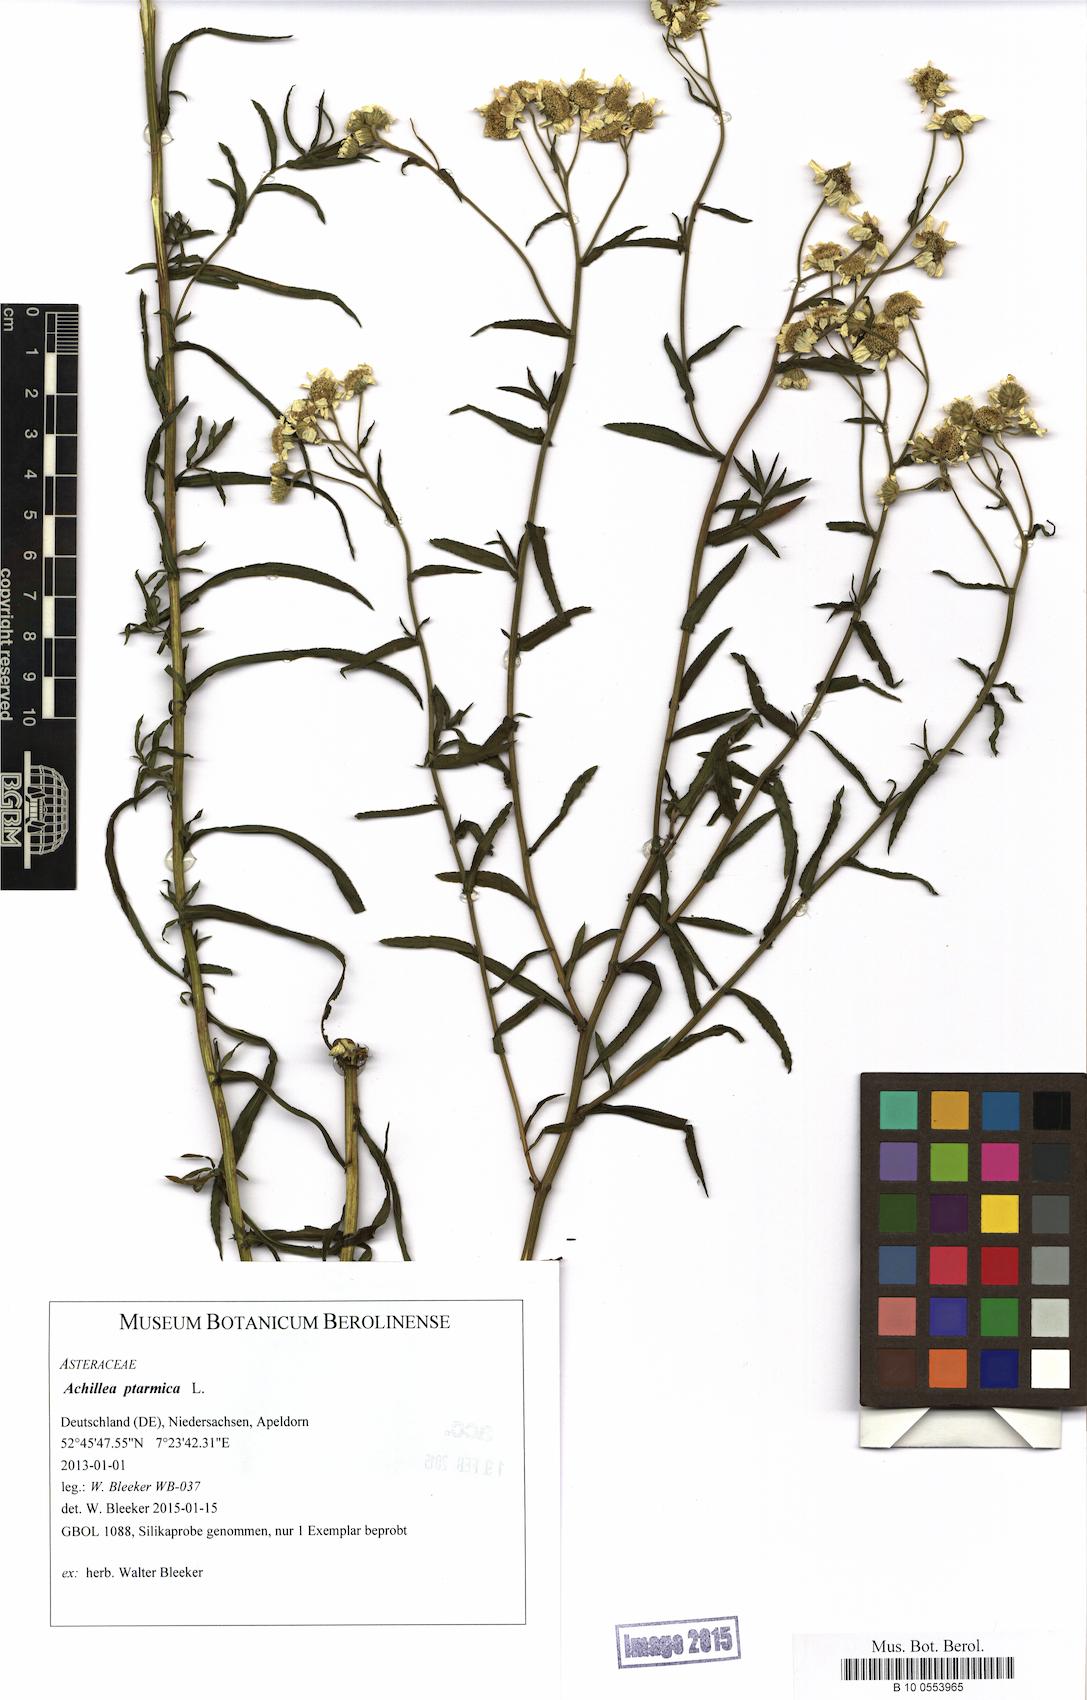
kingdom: Plantae
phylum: Tracheophyta
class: Magnoliopsida
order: Asterales
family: Asteraceae
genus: Achillea
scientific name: Achillea ptarmica
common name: Sneezeweed
